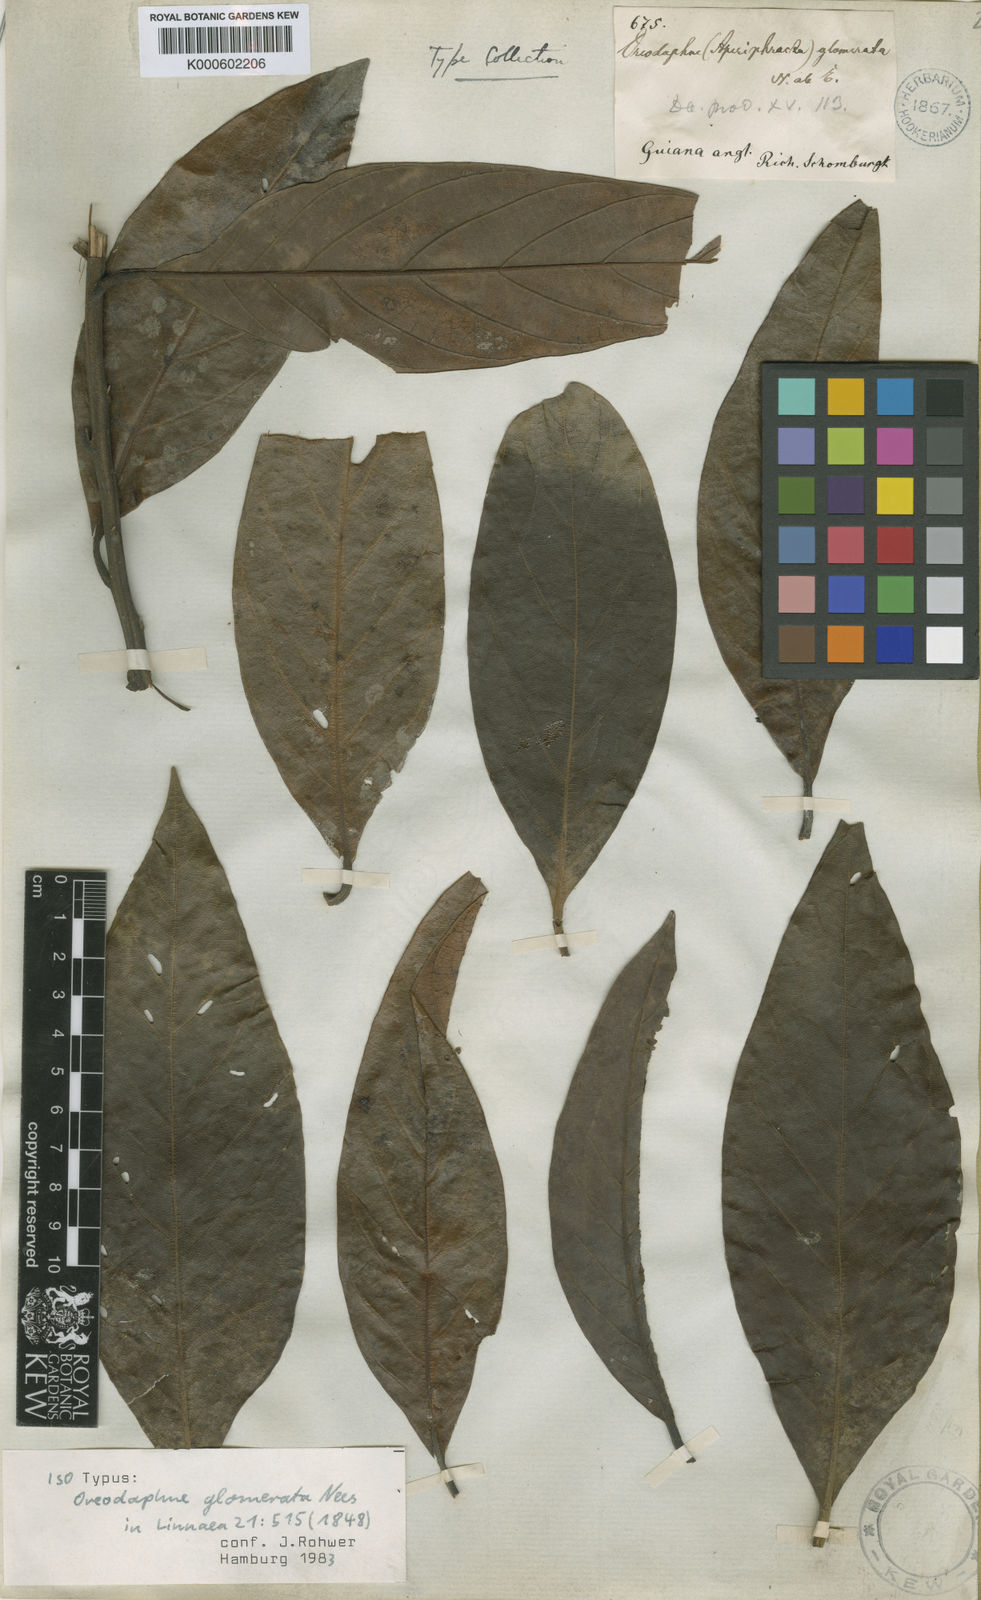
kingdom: Plantae
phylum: Tracheophyta
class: Magnoliopsida
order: Laurales
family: Lauraceae
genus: Ocotea
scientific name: Ocotea glomerata
